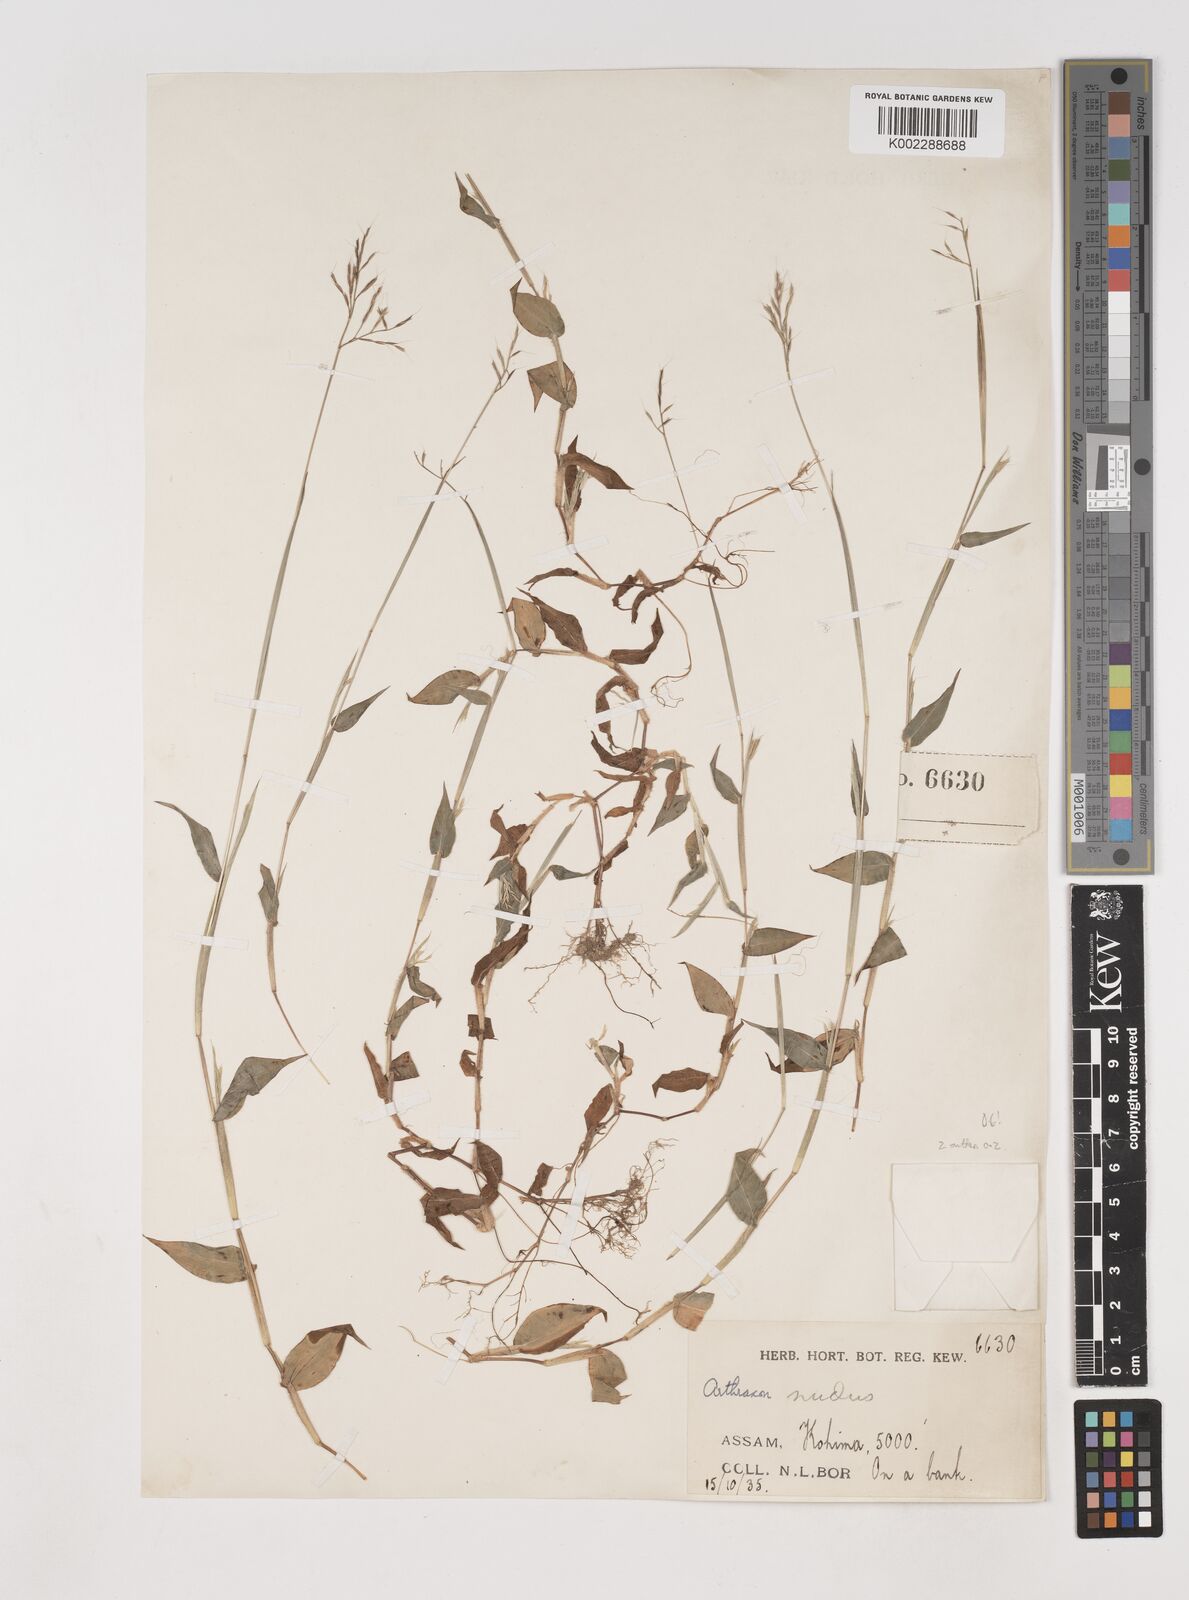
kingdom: Plantae
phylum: Tracheophyta
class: Liliopsida
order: Poales
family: Poaceae
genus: Arthraxon
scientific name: Arthraxon hispidus
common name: Small carpgrass
